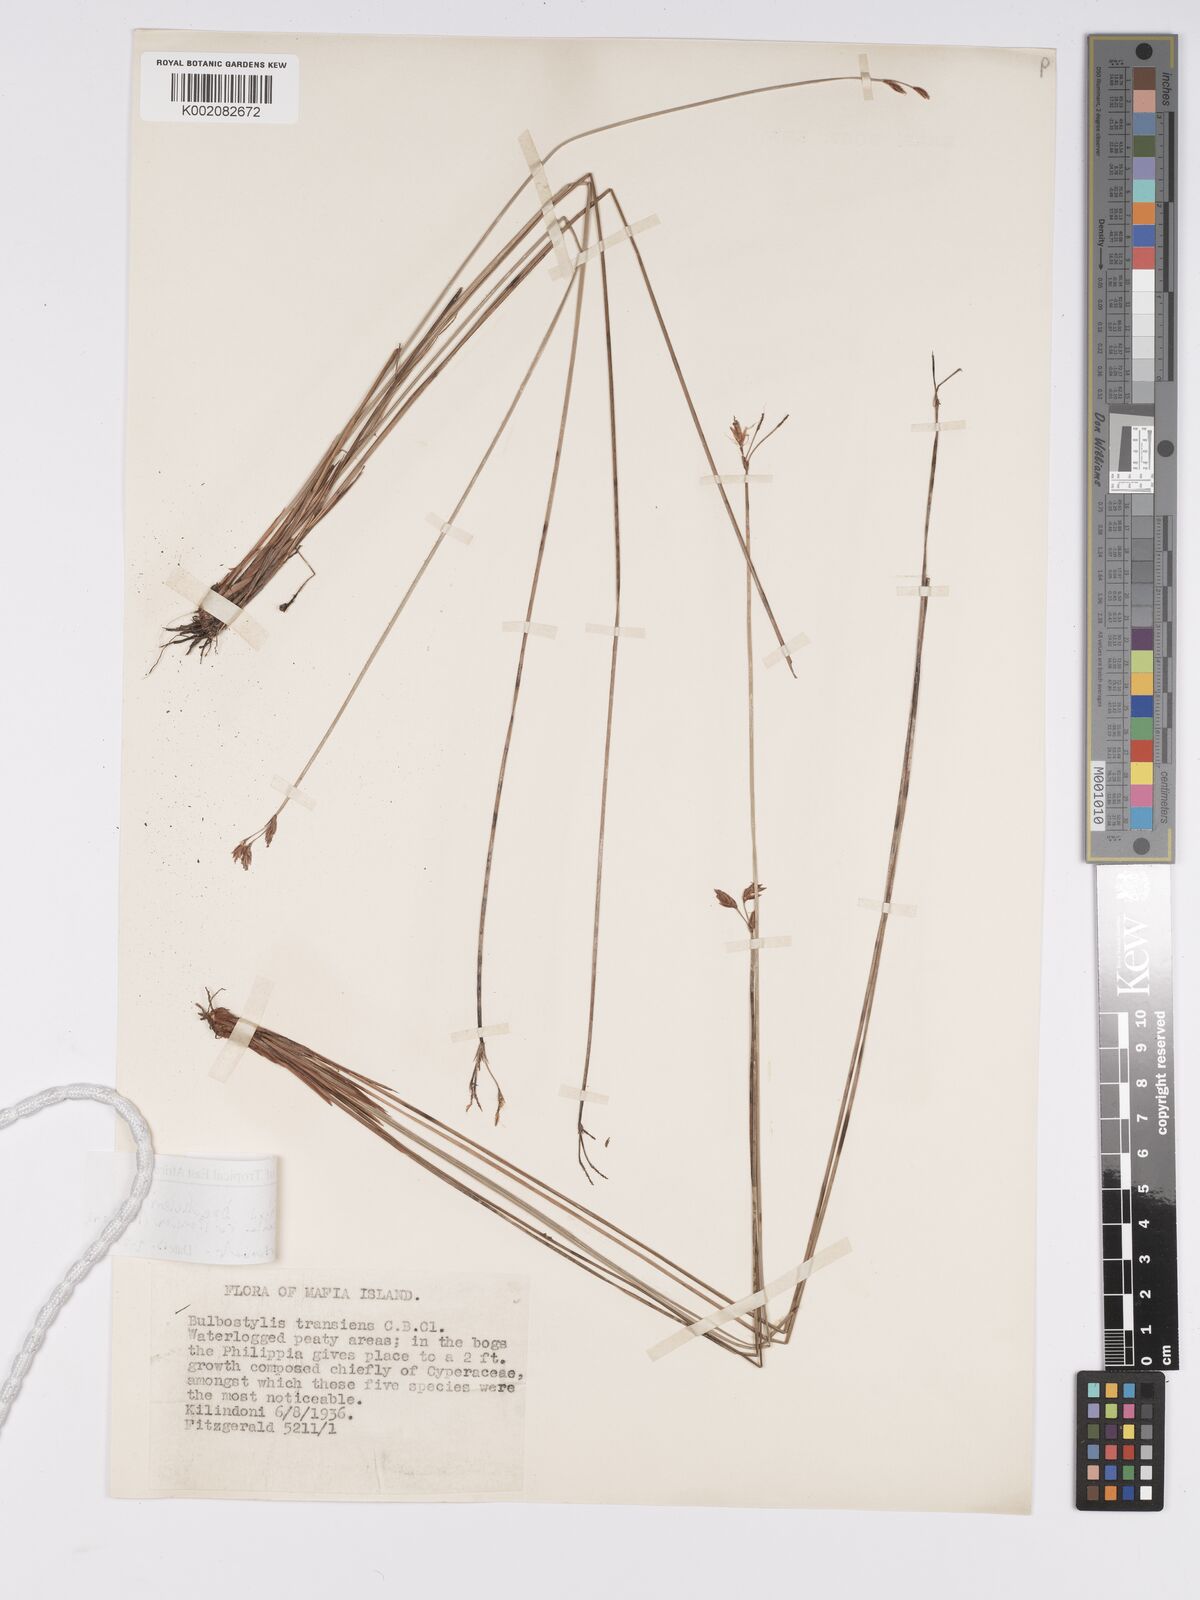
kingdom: Plantae
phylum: Tracheophyta
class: Liliopsida
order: Poales
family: Cyperaceae
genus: Bulbostylis
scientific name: Bulbostylis boeckeleriana
